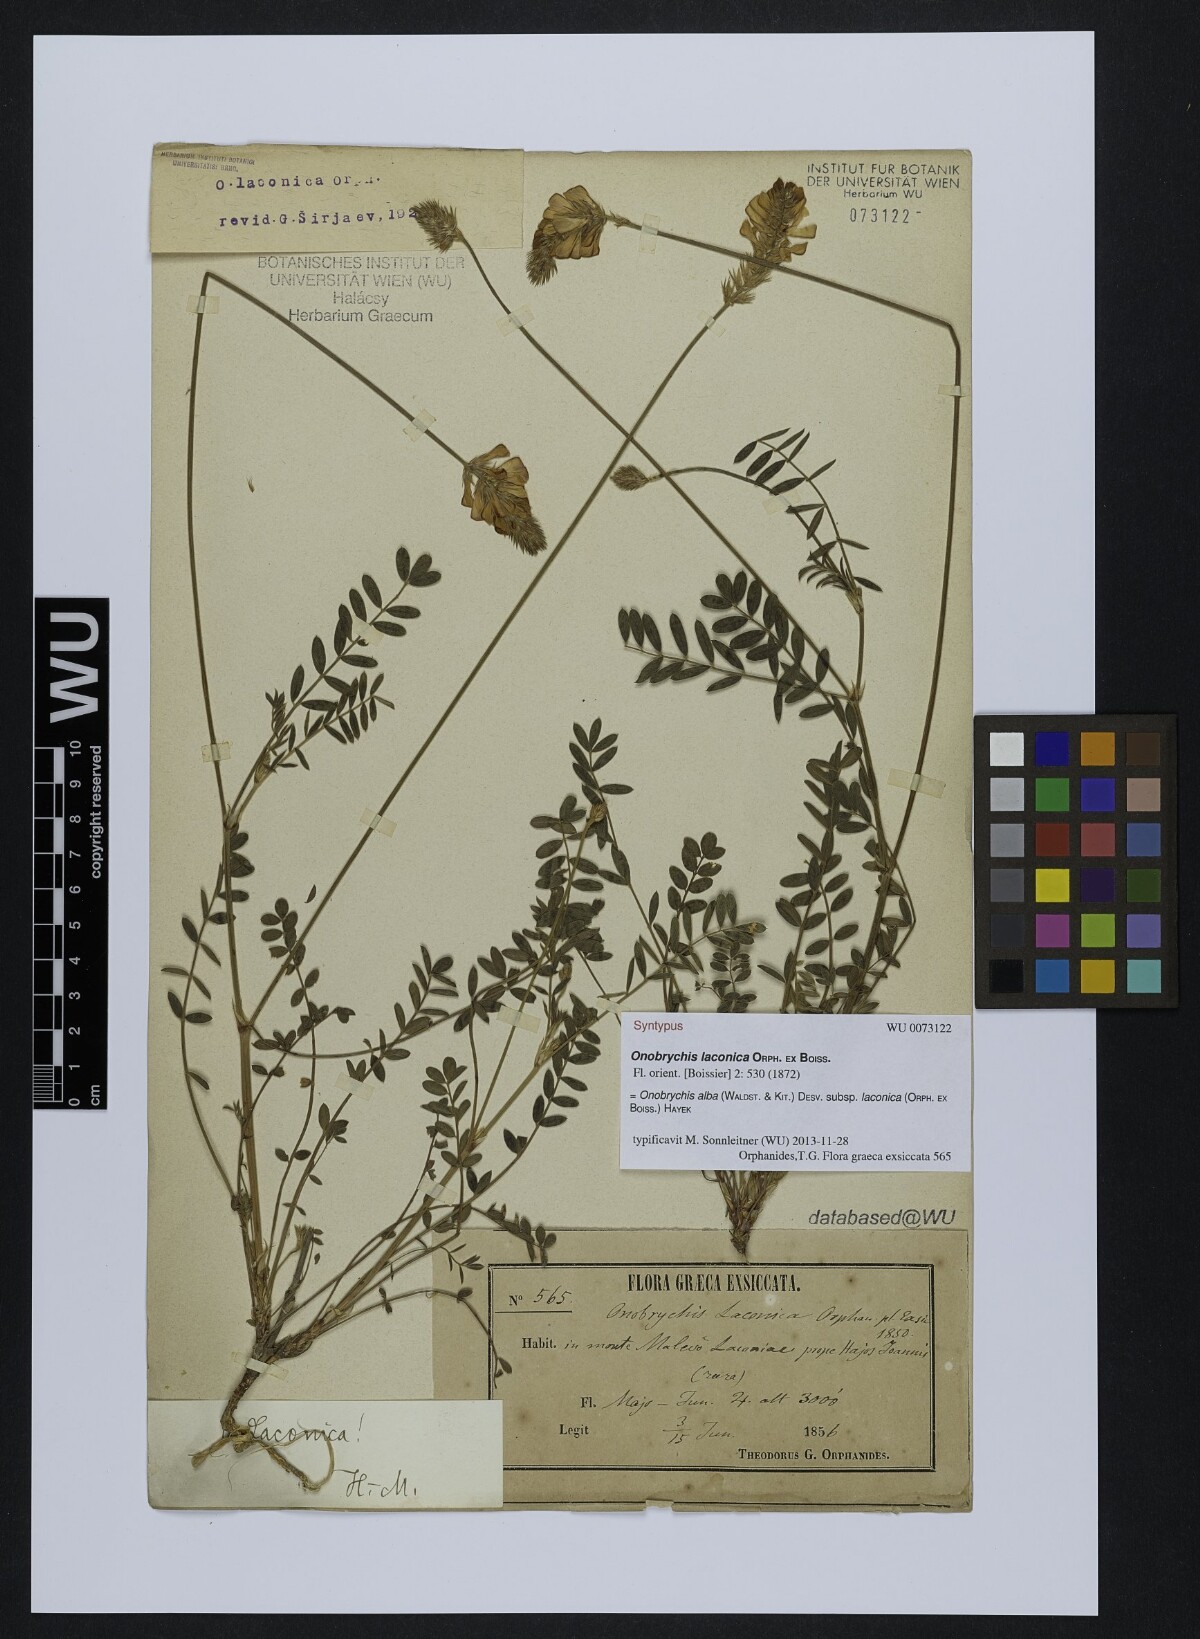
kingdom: Plantae
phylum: Tracheophyta
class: Magnoliopsida
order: Fabales
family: Fabaceae
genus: Onobrychis
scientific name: Onobrychis alba
